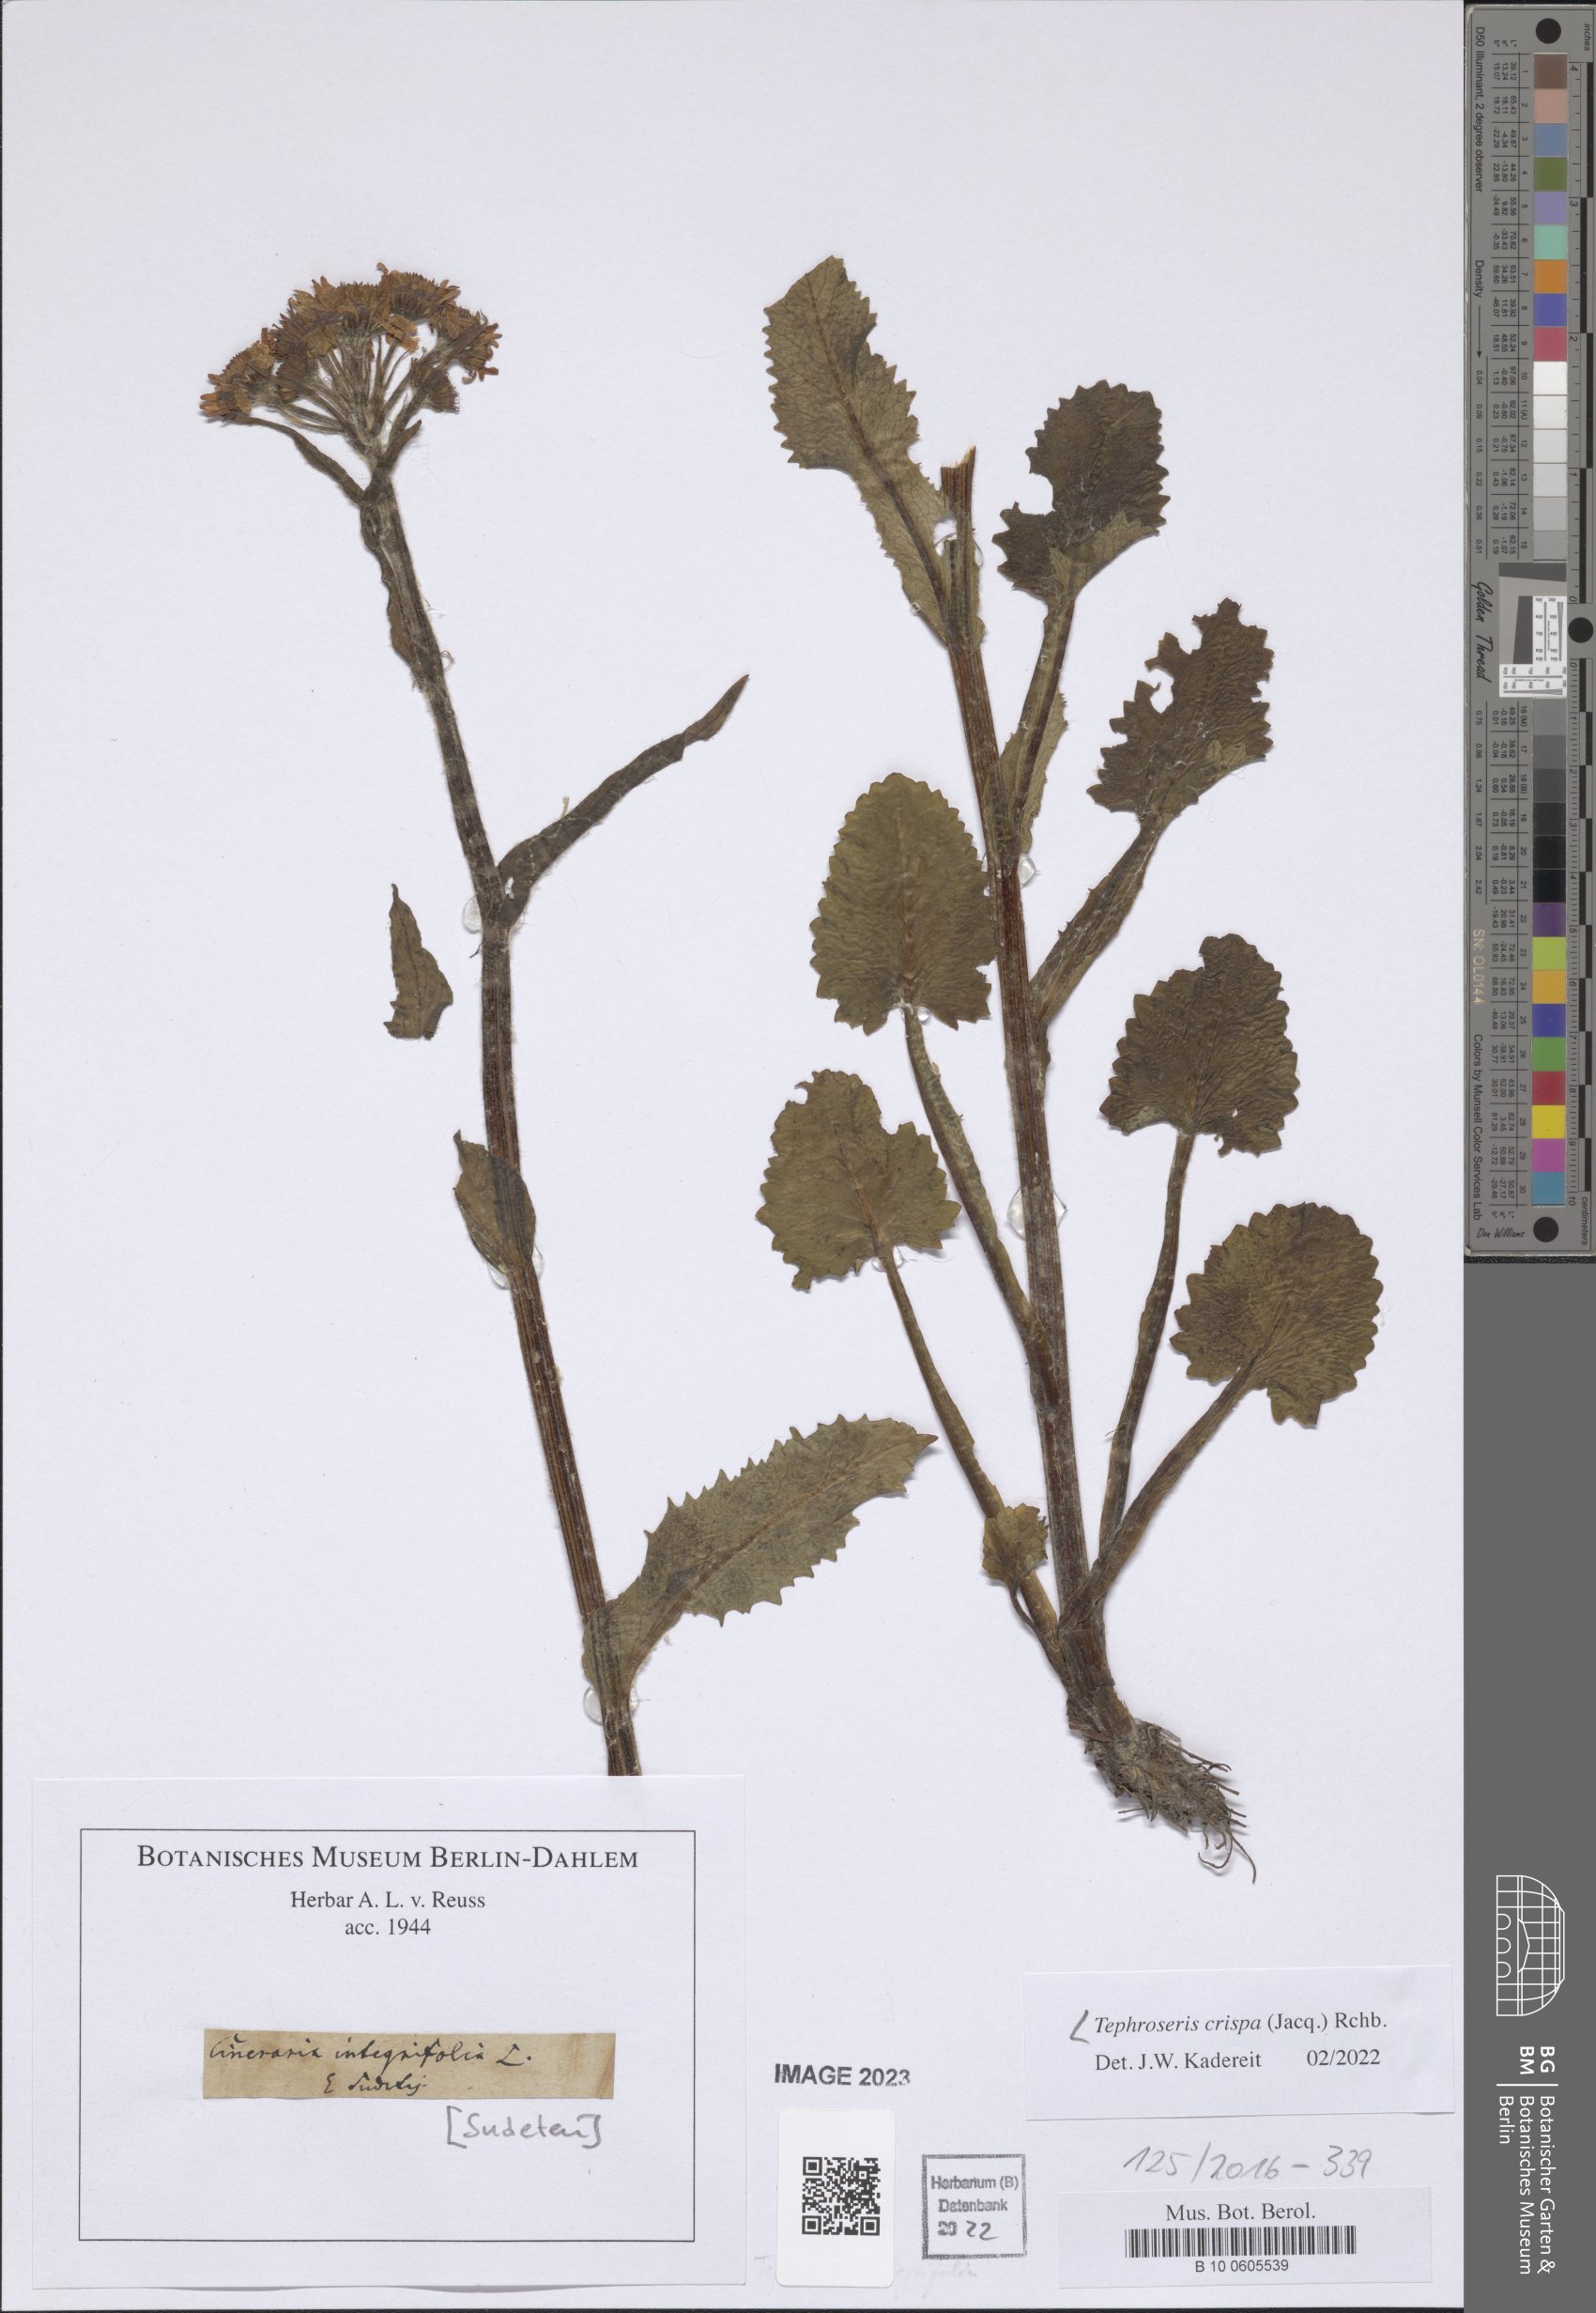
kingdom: Plantae
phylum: Tracheophyta
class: Magnoliopsida
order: Asterales
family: Asteraceae
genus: Tephroseris
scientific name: Tephroseris crispa
